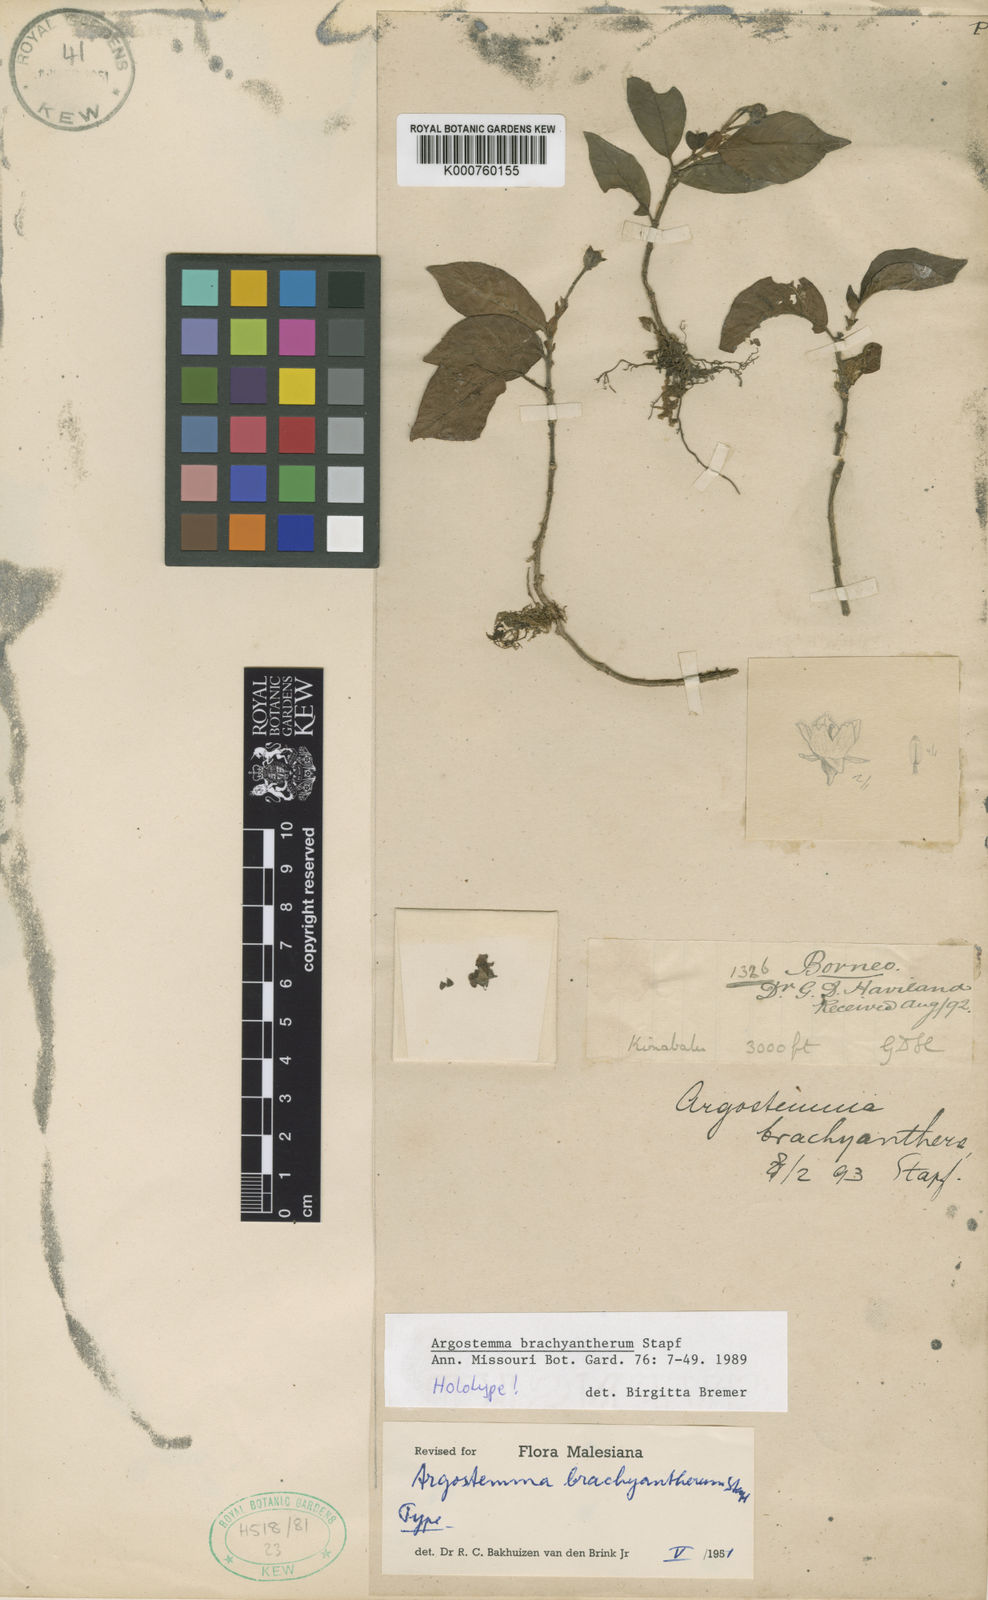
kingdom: Plantae
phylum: Tracheophyta
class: Magnoliopsida
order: Gentianales
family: Rubiaceae
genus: Argostemma
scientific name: Argostemma brachyantherum
